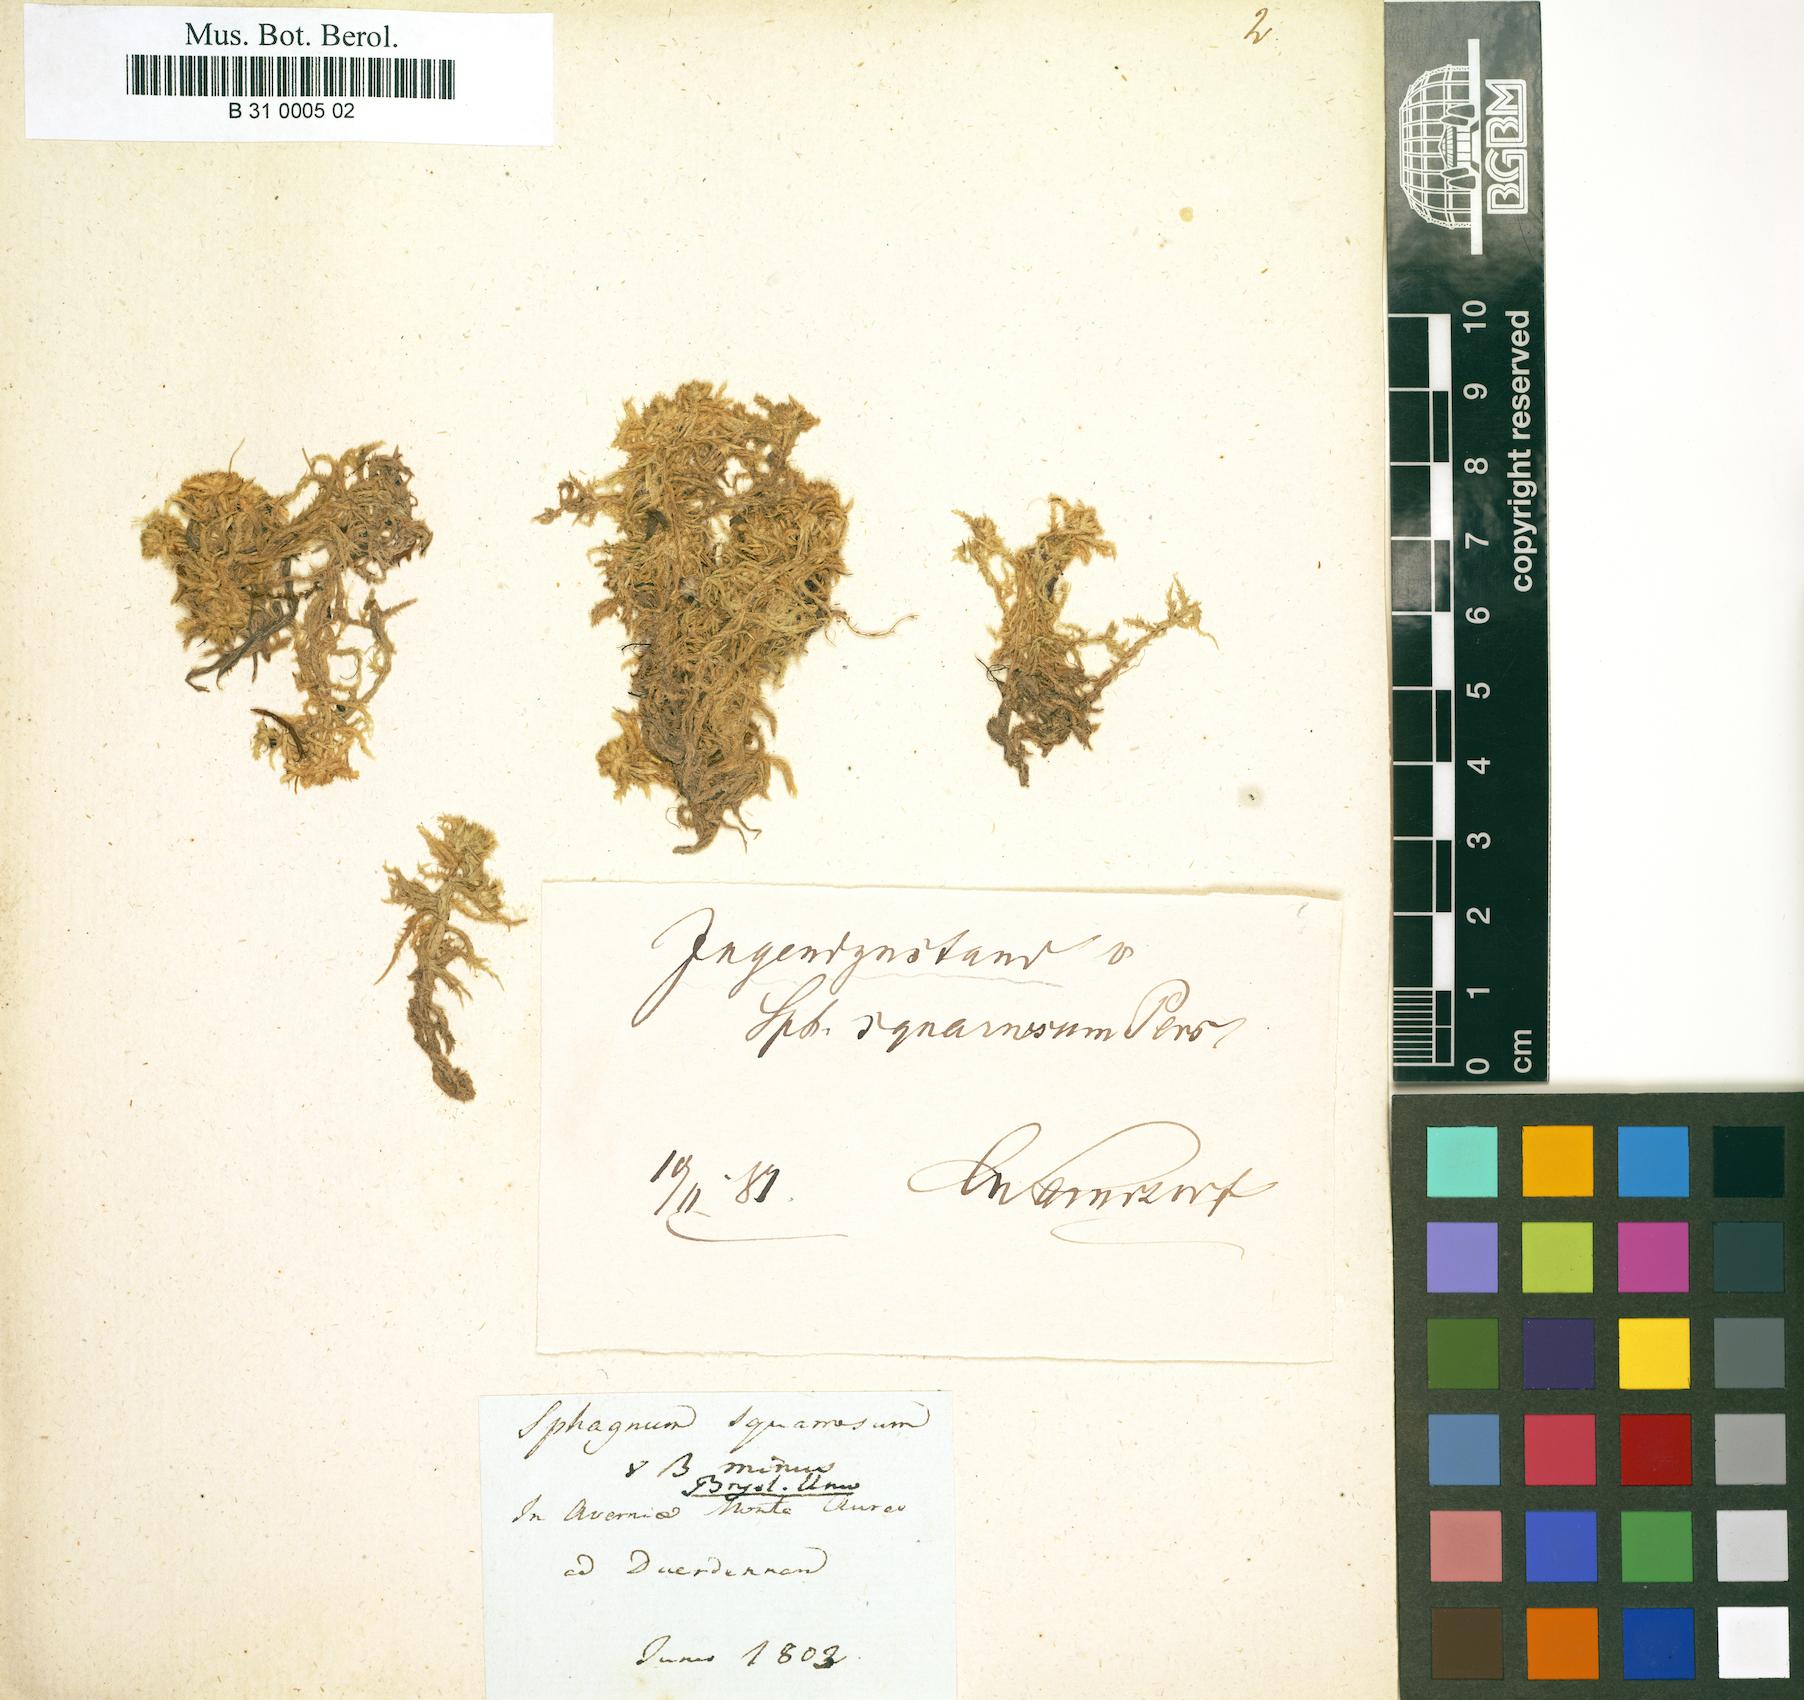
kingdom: Plantae
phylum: Bryophyta
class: Sphagnopsida
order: Sphagnales
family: Sphagnaceae
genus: Sphagnum
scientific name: Sphagnum squarrosum
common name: Shaggy peat moss
